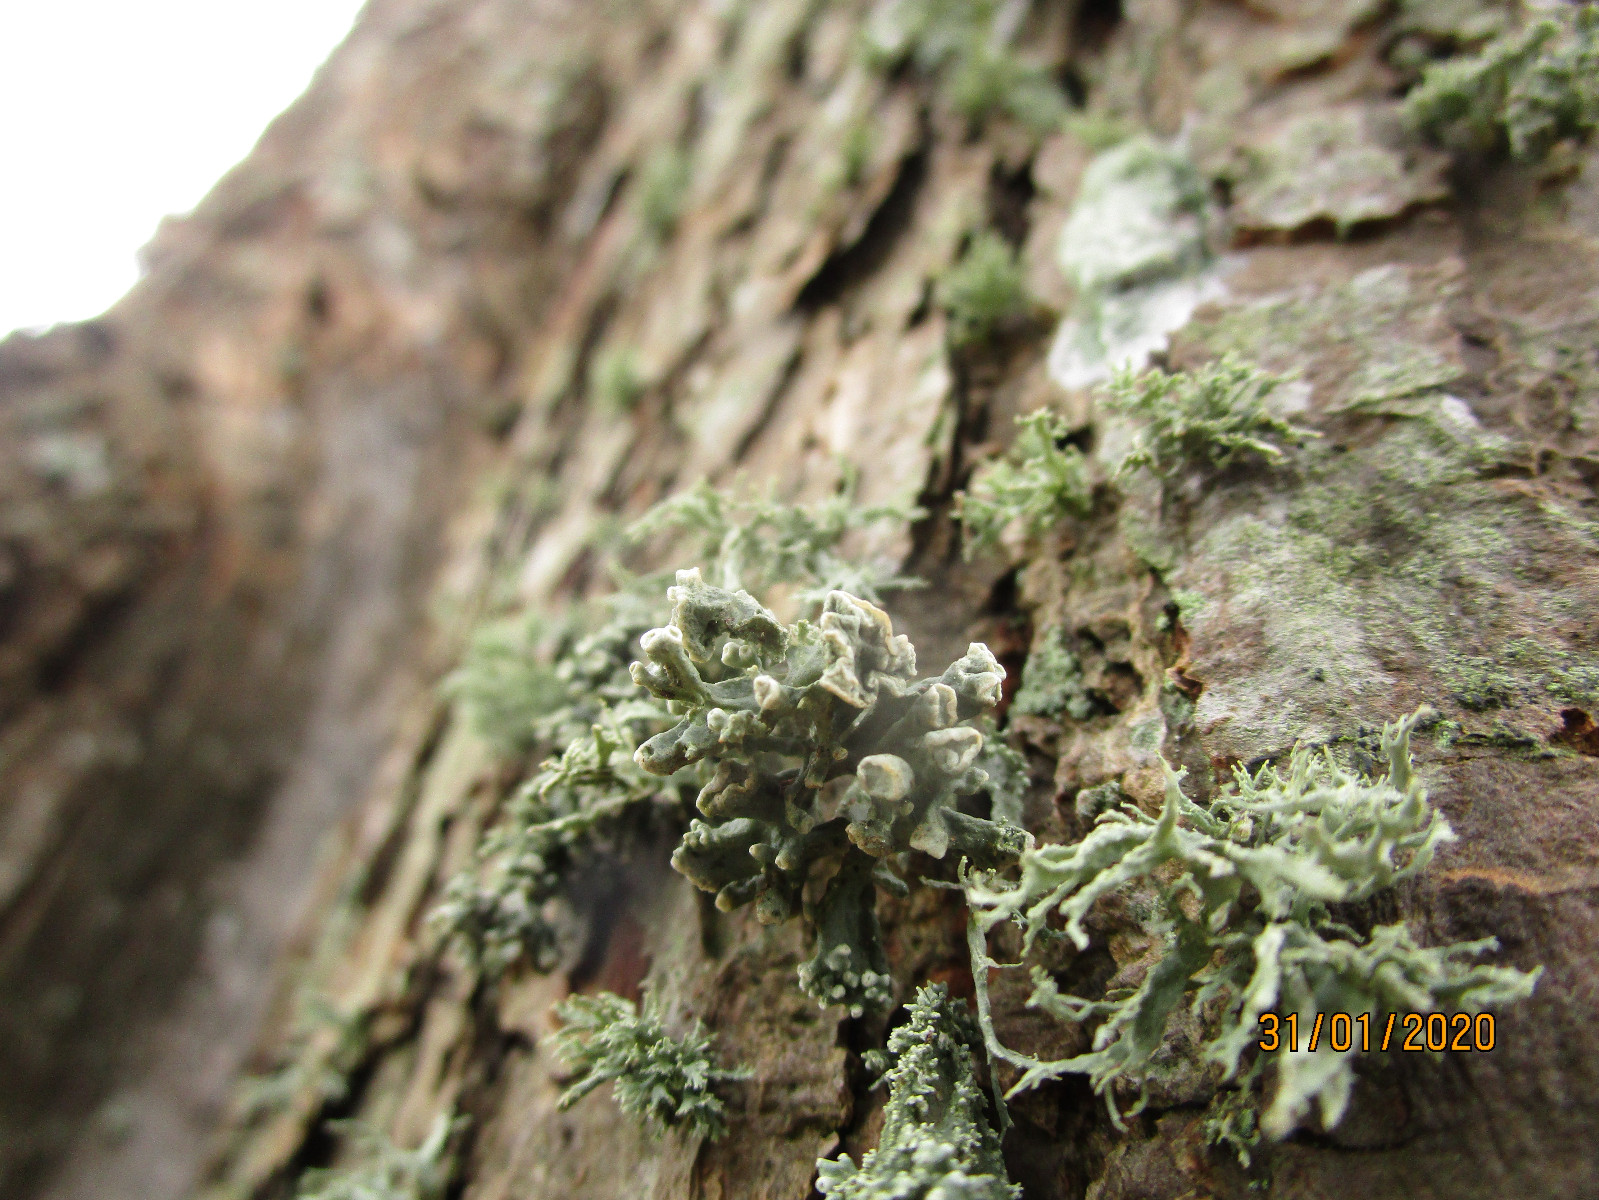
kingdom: Fungi
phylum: Ascomycota
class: Lecanoromycetes
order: Lecanorales
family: Ramalinaceae
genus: Ramalina
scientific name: Ramalina fastigiata
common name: tue-grenlav
